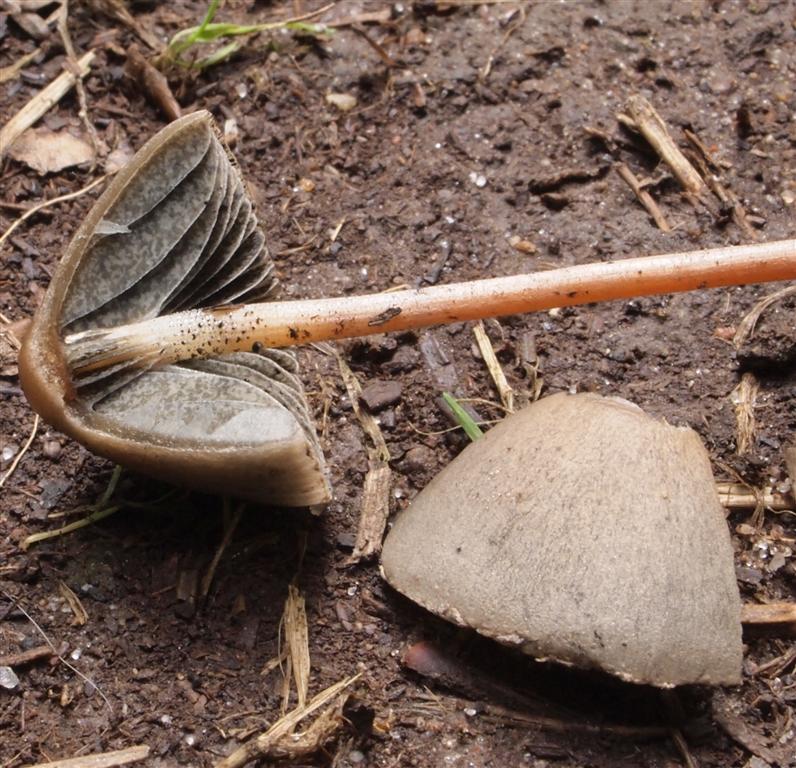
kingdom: Fungi
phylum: Basidiomycota
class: Agaricomycetes
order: Agaricales
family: Bolbitiaceae
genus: Panaeolus
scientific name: Panaeolus acuminatus
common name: høj glanshat
